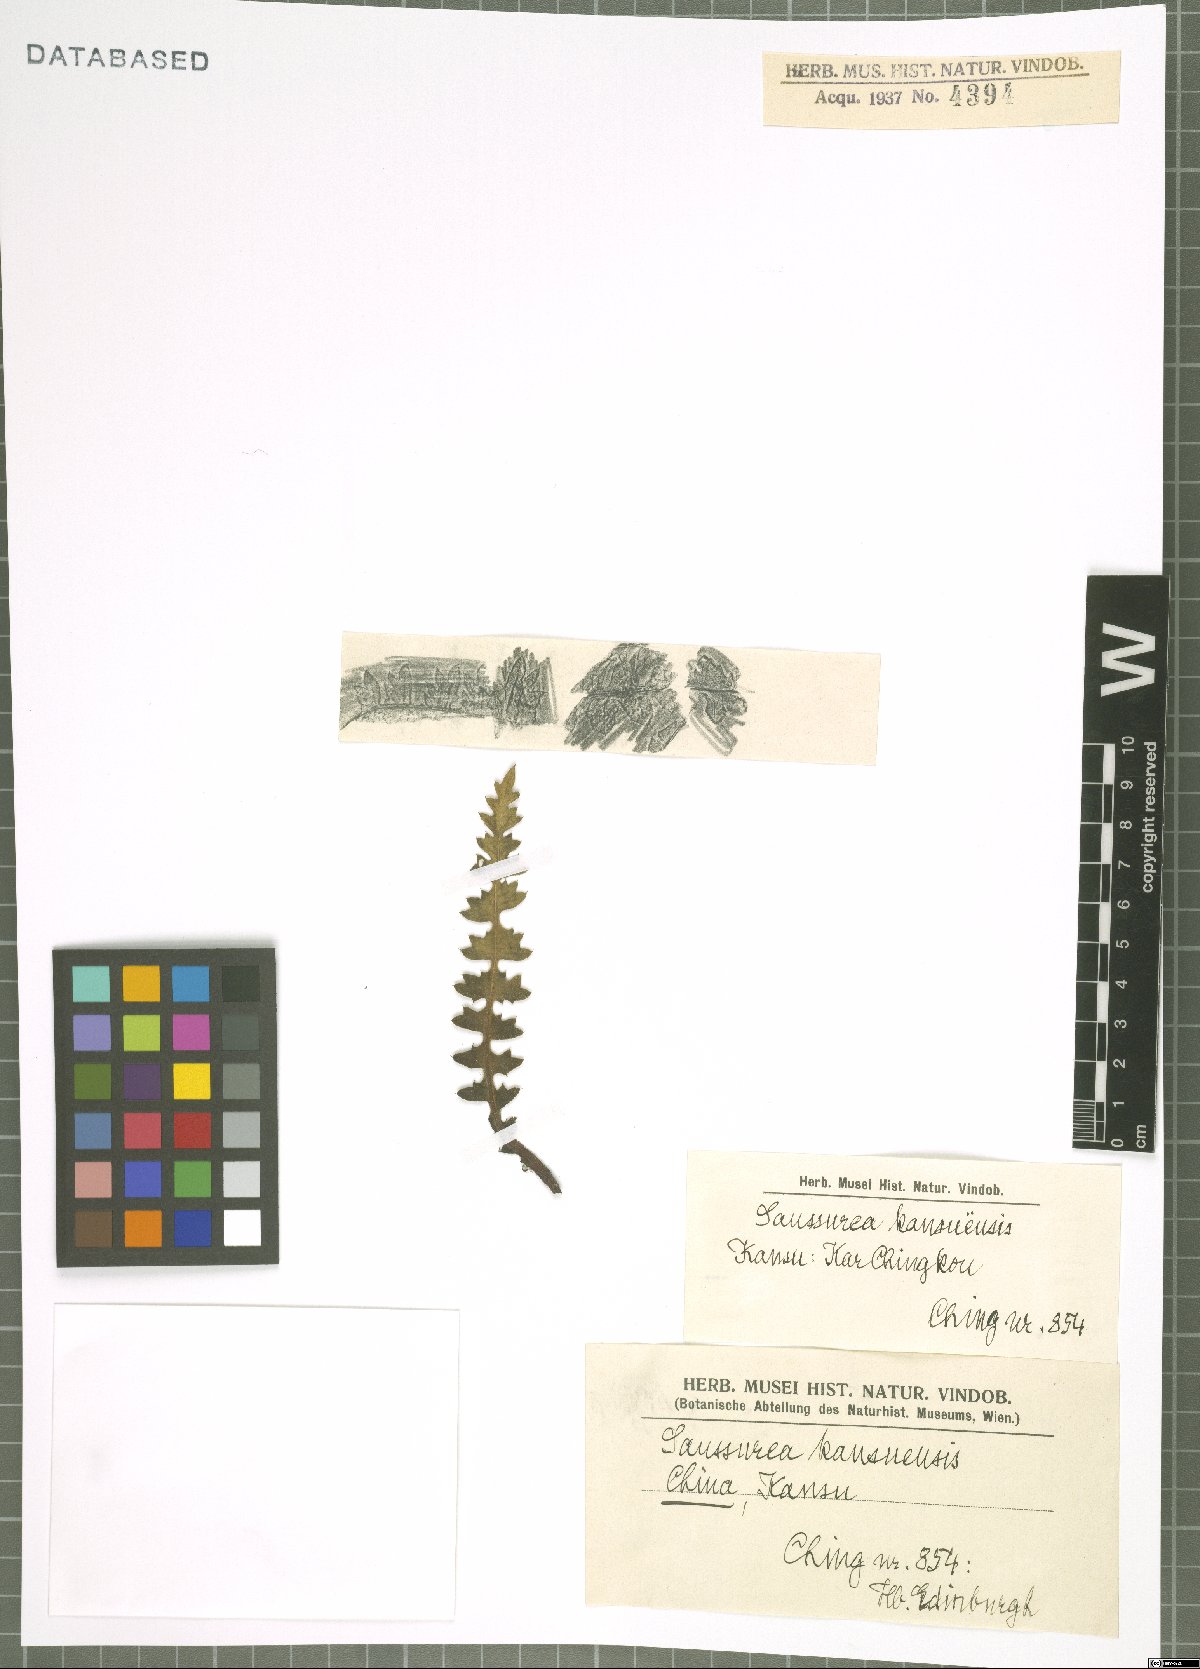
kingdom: Plantae
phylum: Tracheophyta
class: Magnoliopsida
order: Asterales
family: Asteraceae
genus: Saussurea
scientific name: Saussurea kansuensis
